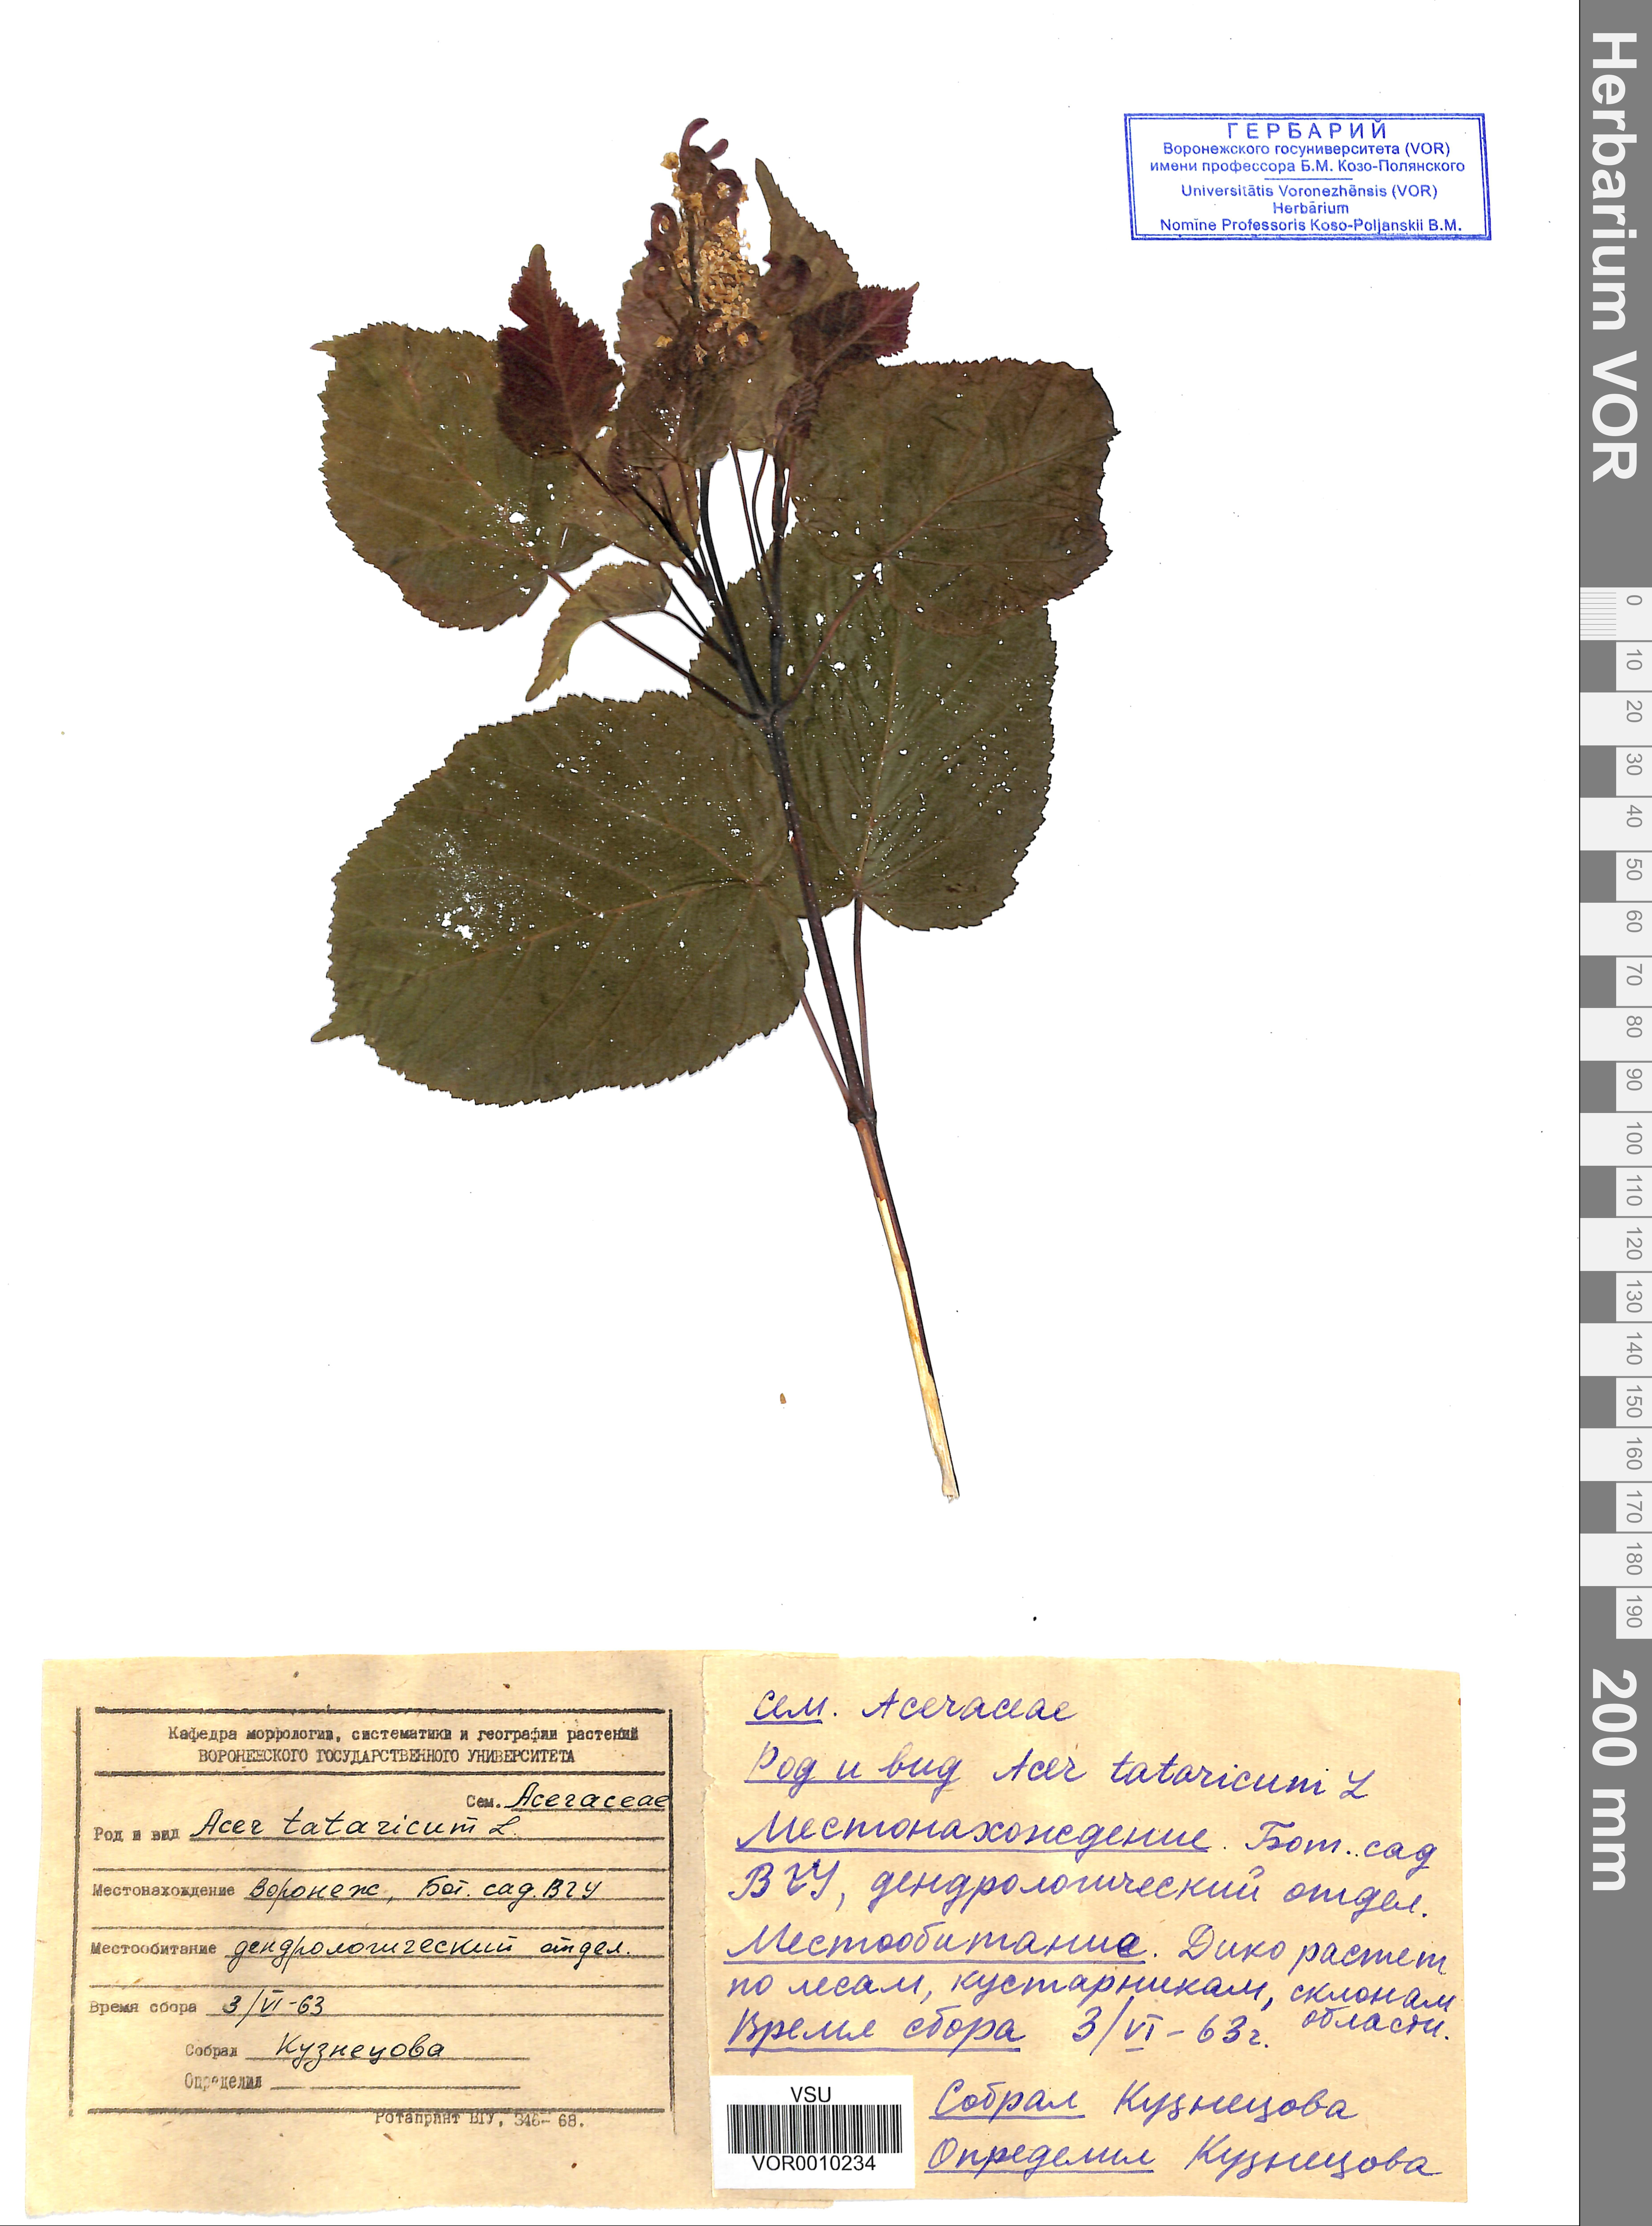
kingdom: Plantae
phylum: Tracheophyta
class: Magnoliopsida
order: Sapindales
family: Sapindaceae
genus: Acer
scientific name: Acer tataricum
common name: Tartar maple
